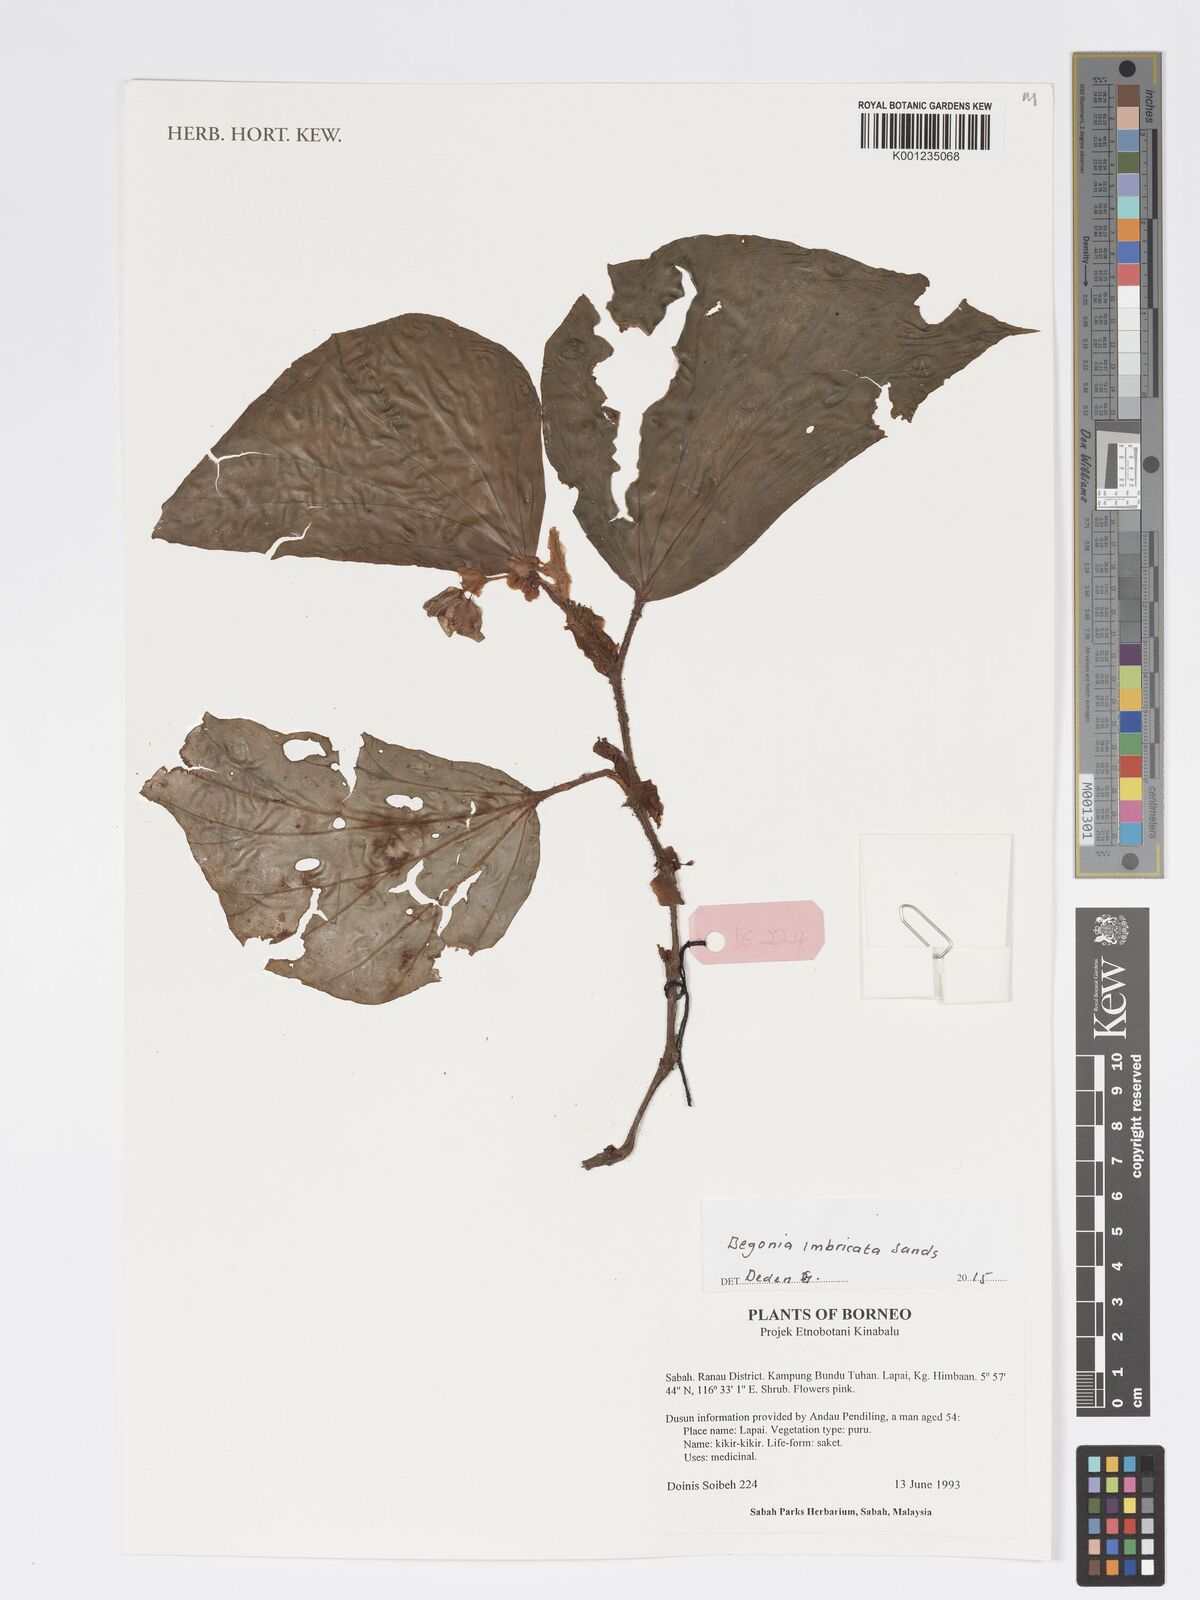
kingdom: Plantae
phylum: Tracheophyta
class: Magnoliopsida
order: Cucurbitales
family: Begoniaceae
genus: Begonia
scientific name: Begonia imbricata
